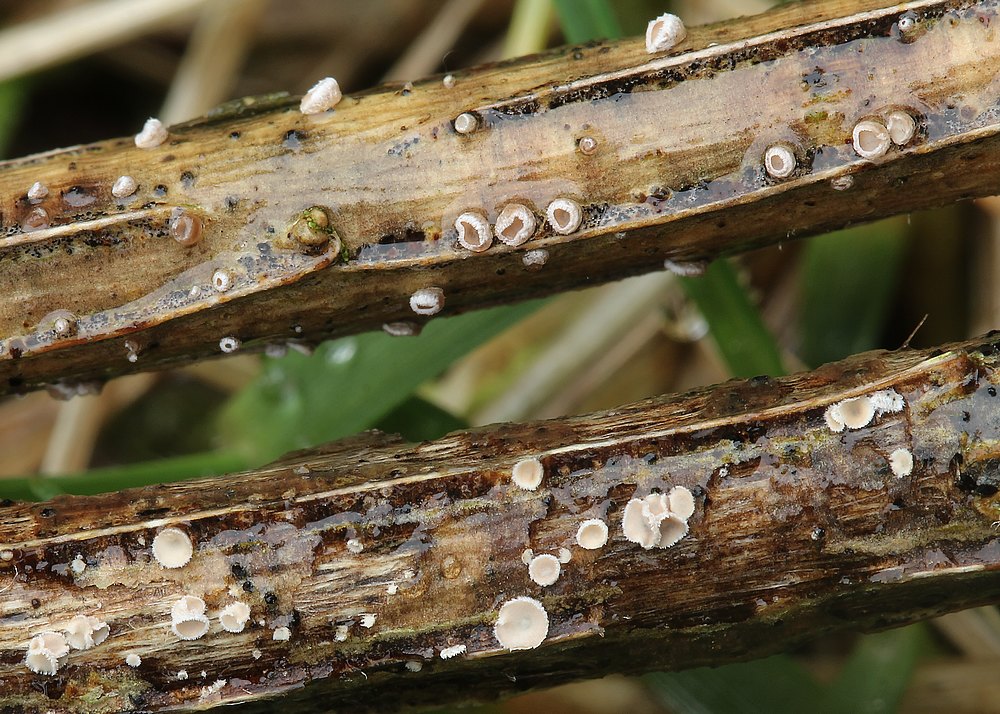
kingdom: Fungi
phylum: Basidiomycota
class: Agaricomycetes
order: Agaricales
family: Niaceae
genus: Merismodes
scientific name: Merismodes
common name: urte-læderskål
